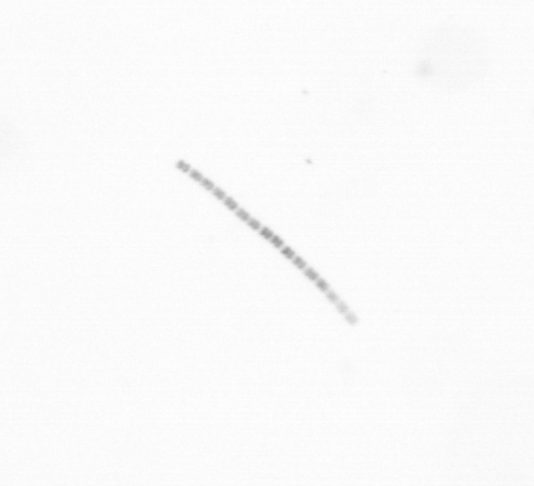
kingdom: Chromista
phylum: Ochrophyta
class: Bacillariophyceae
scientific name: Bacillariophyceae
